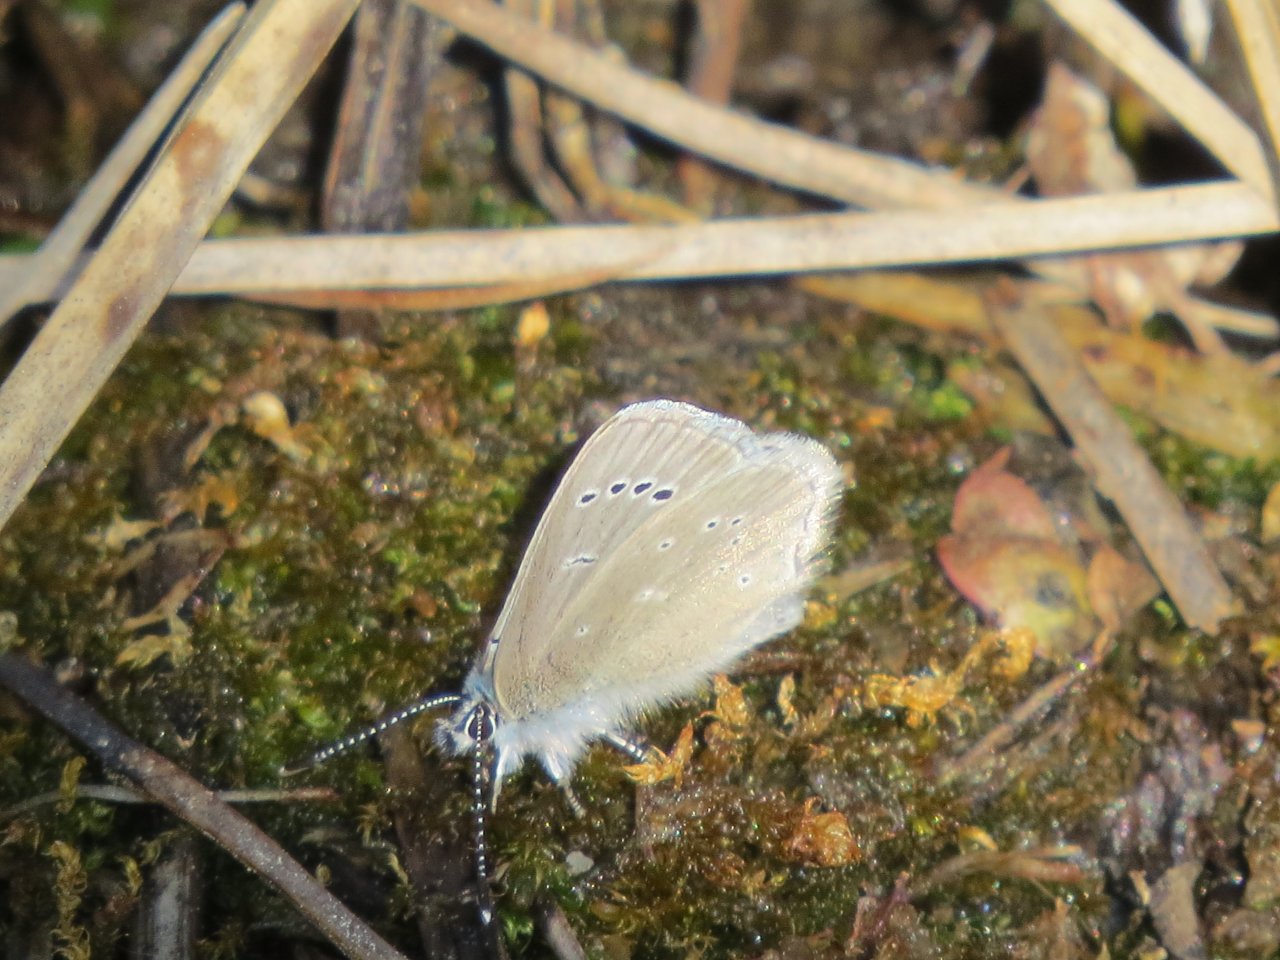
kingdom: Animalia
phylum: Arthropoda
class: Insecta
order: Lepidoptera
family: Lycaenidae
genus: Glaucopsyche
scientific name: Glaucopsyche lygdamus
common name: Silvery Blue
